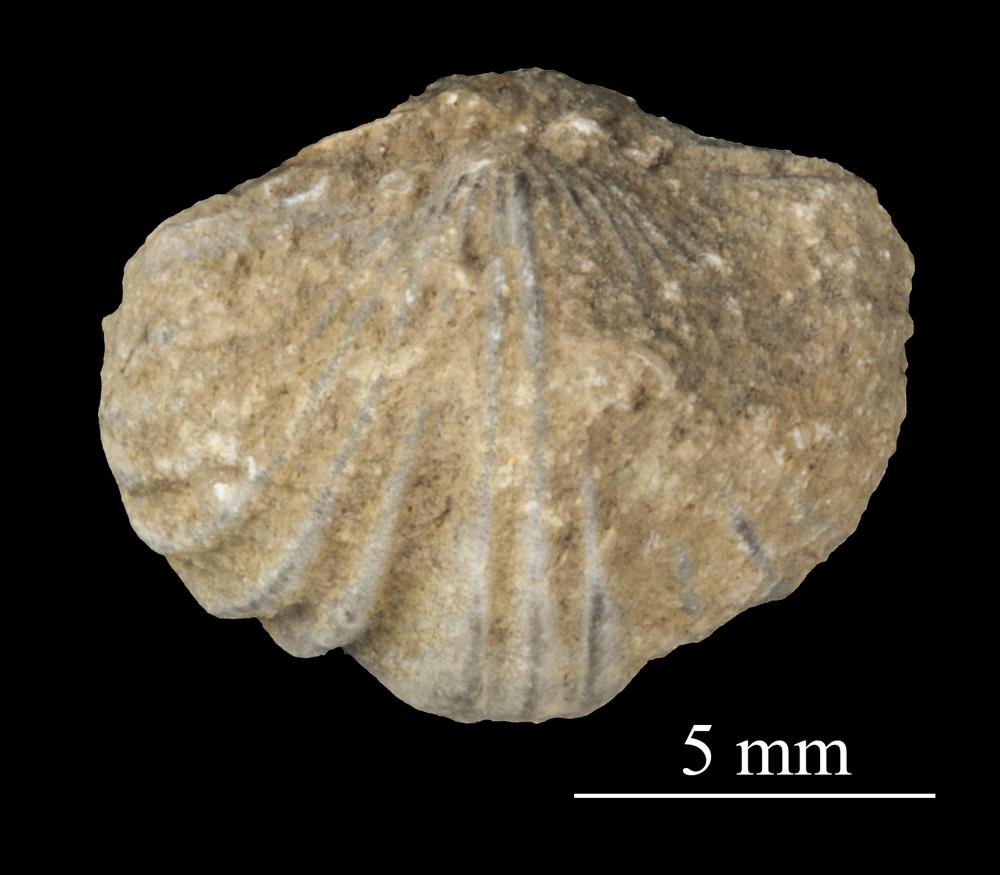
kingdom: Animalia
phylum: Brachiopoda
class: Rhynchonellata
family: Plectorthidae
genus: Platystrophia
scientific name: Platystrophia dentata
